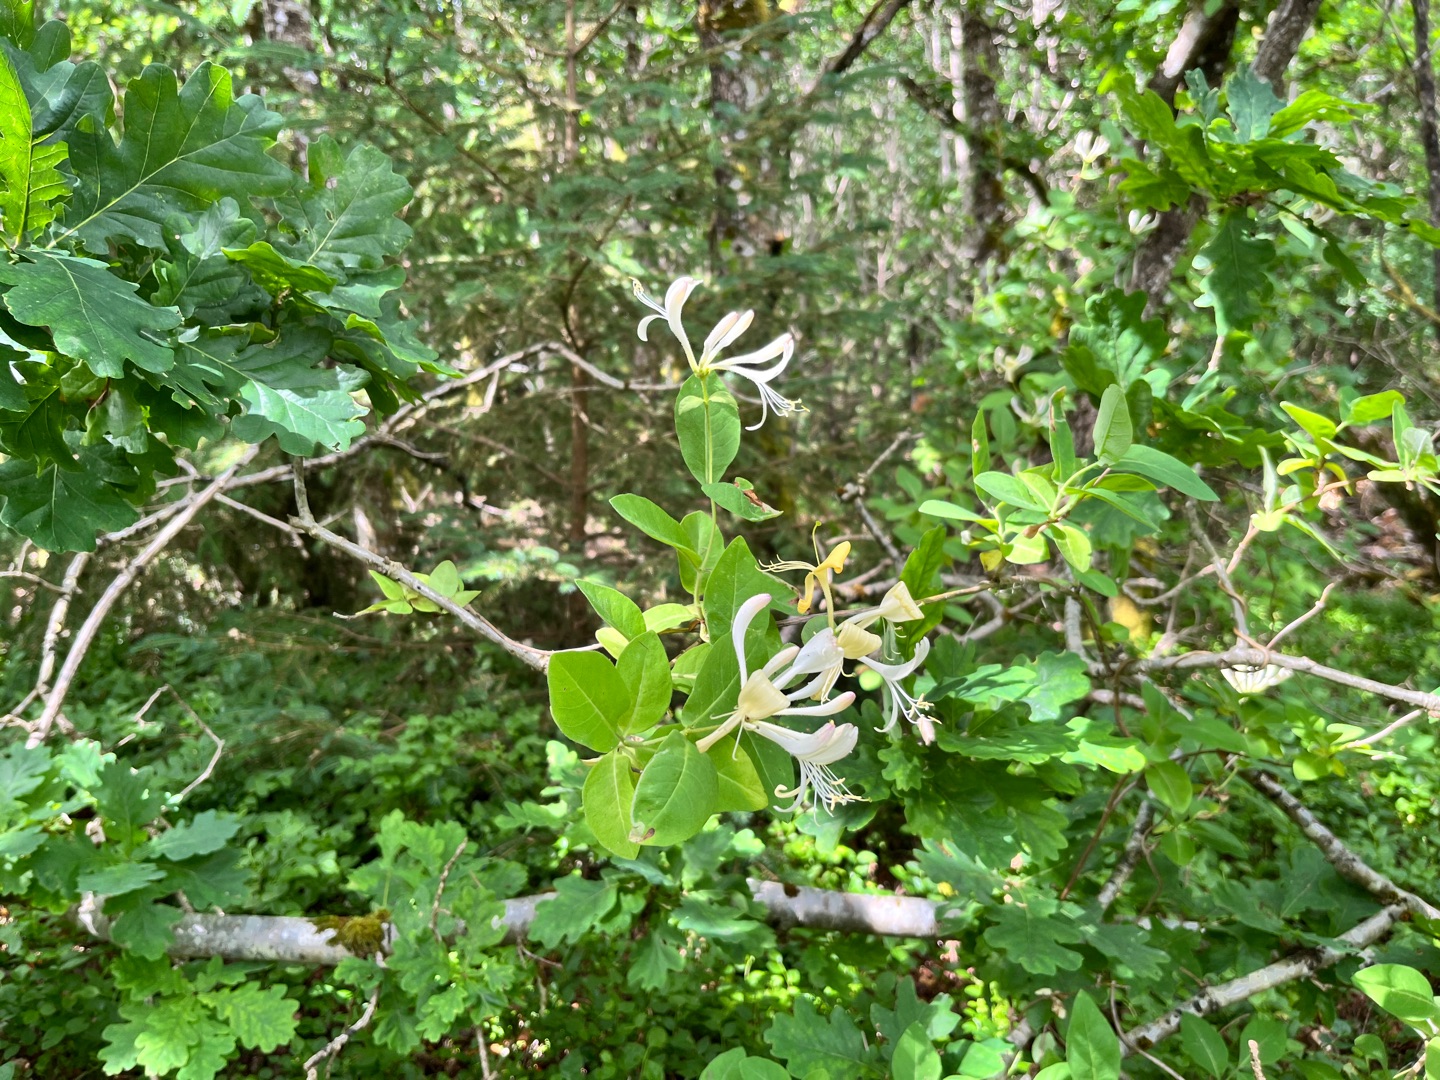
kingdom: Plantae
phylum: Tracheophyta
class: Magnoliopsida
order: Dipsacales
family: Caprifoliaceae
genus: Lonicera
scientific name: Lonicera periclymenum
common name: Almindelig gedeblad
